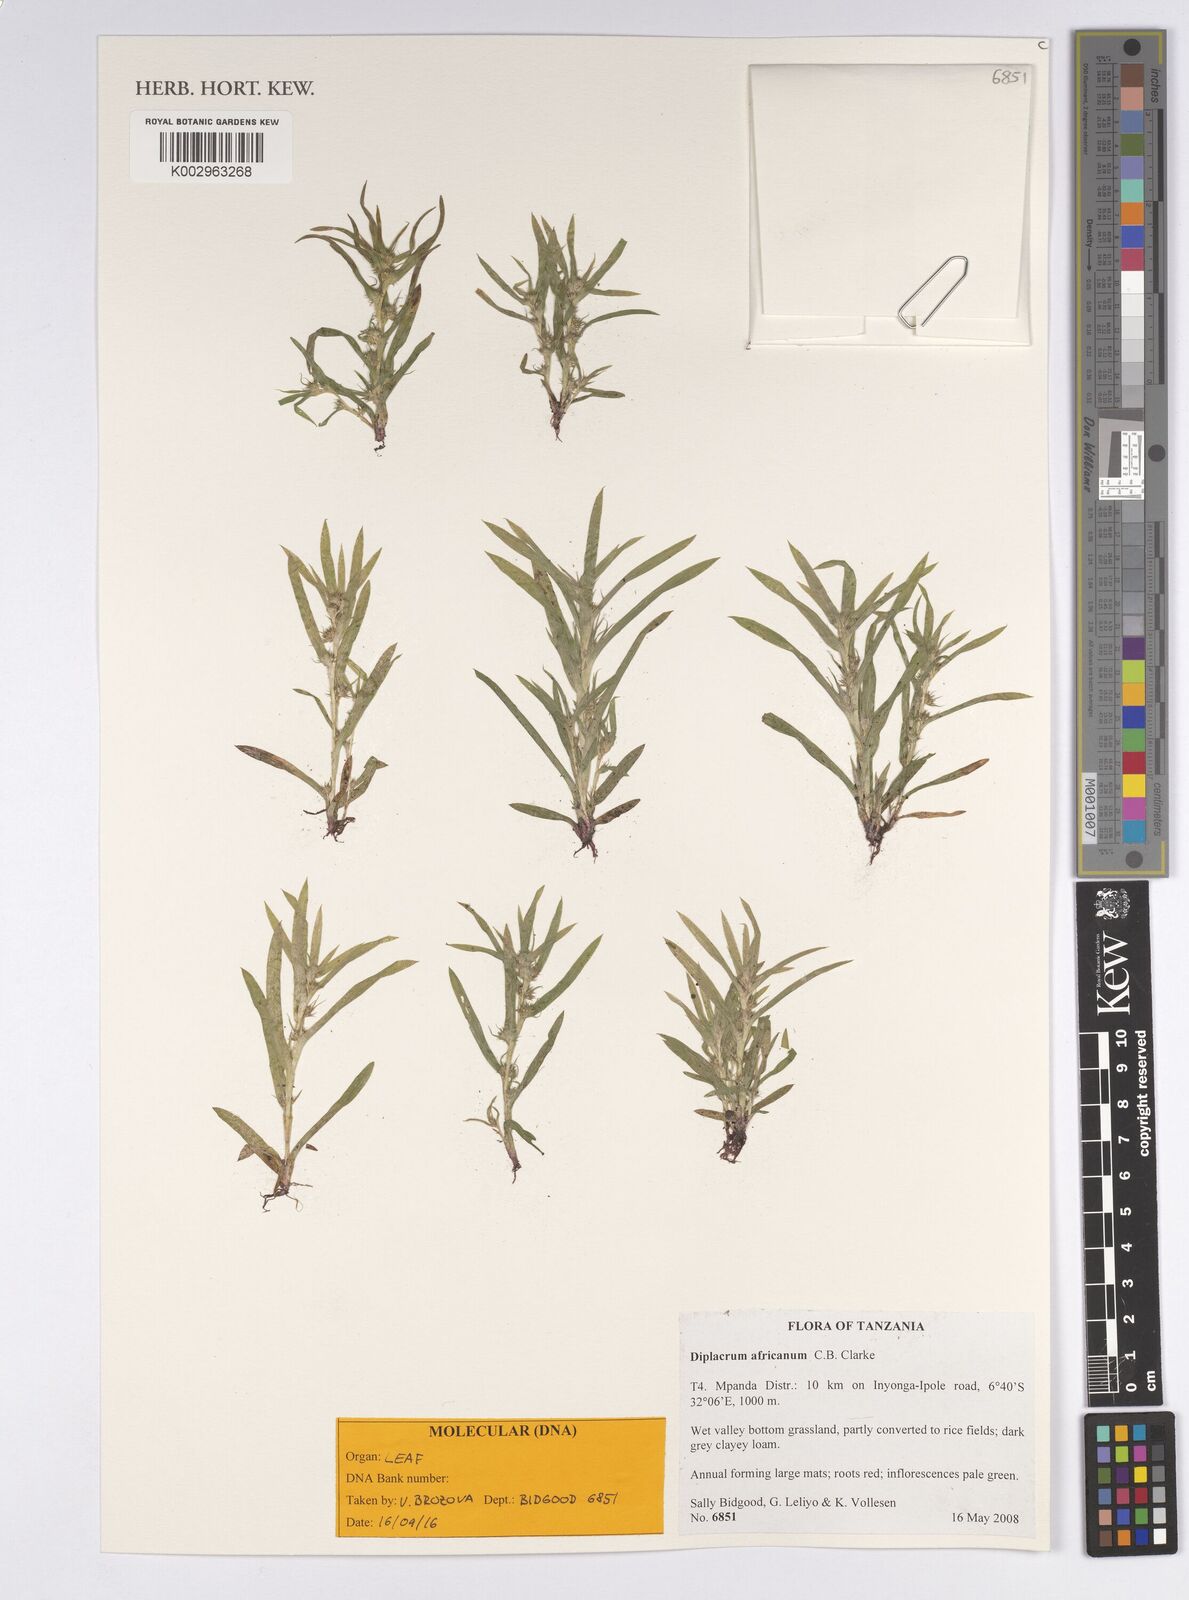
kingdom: Plantae
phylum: Tracheophyta
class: Liliopsida
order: Poales
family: Cyperaceae
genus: Diplacrum
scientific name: Diplacrum africanum
